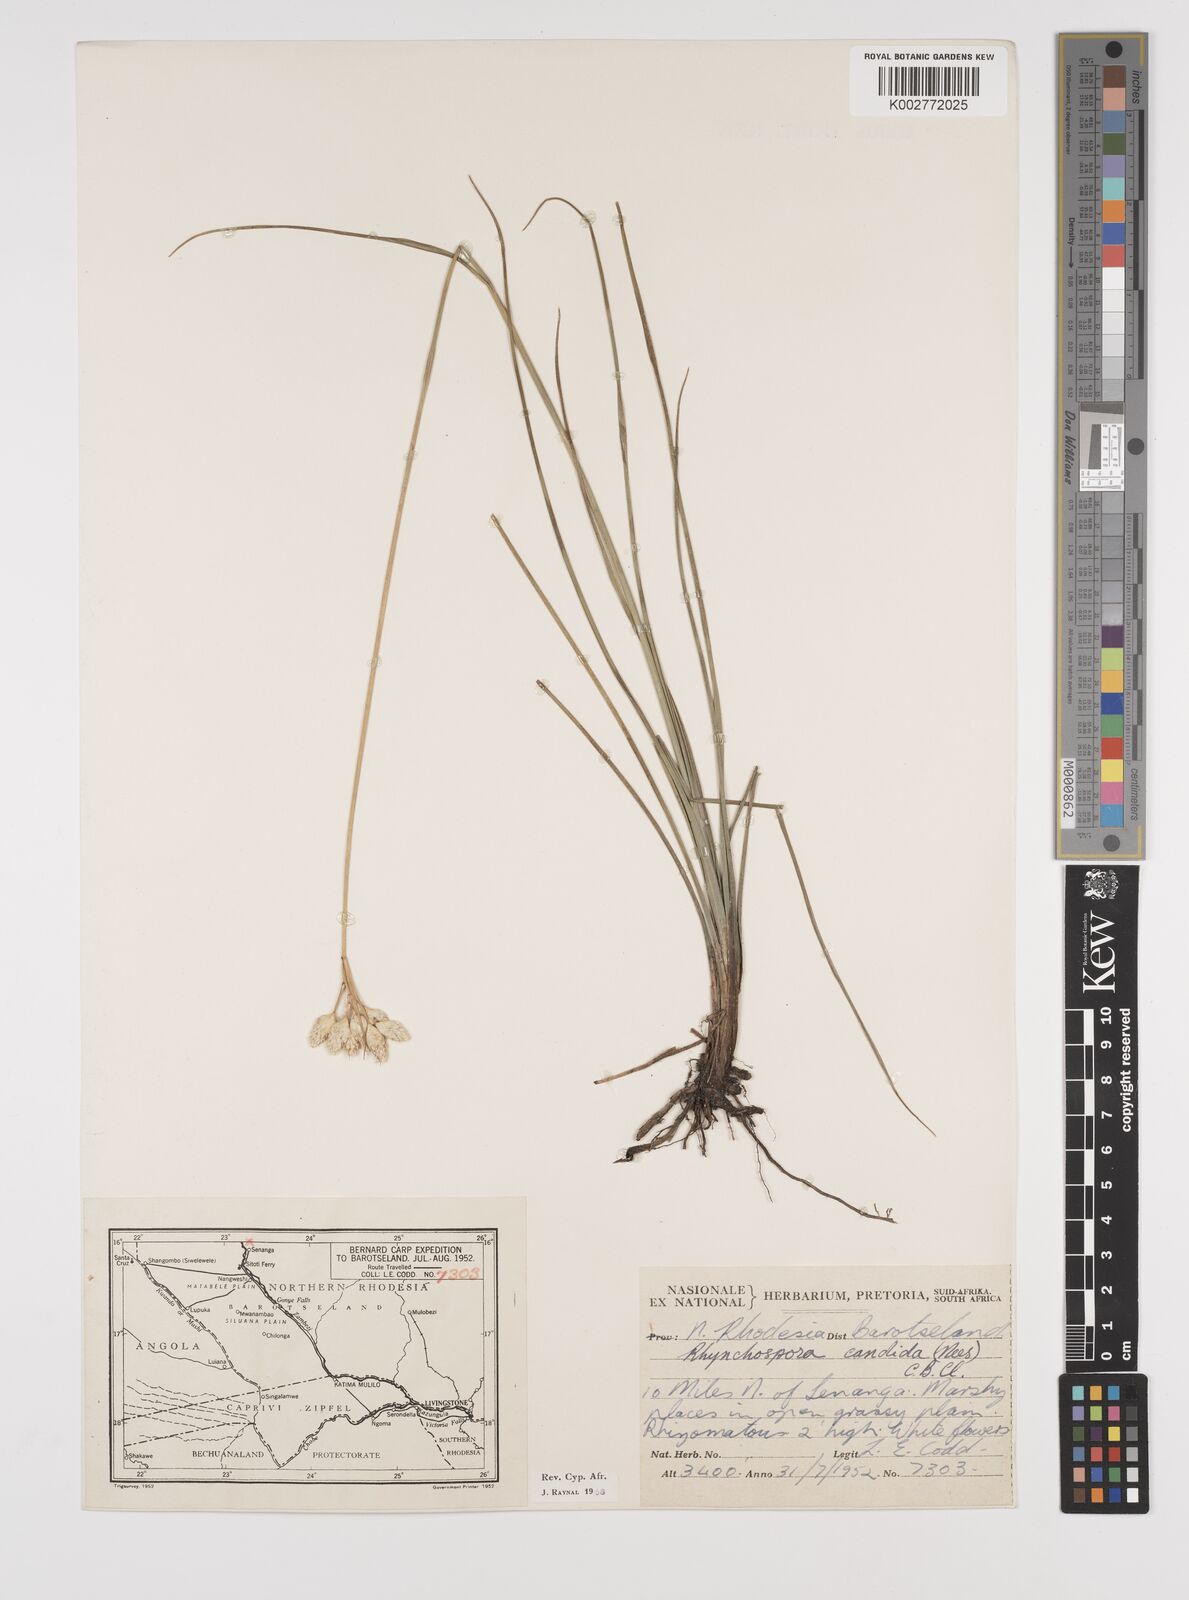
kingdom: Plantae
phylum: Tracheophyta
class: Liliopsida
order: Poales
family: Cyperaceae
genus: Rhynchospora
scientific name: Rhynchospora candida
